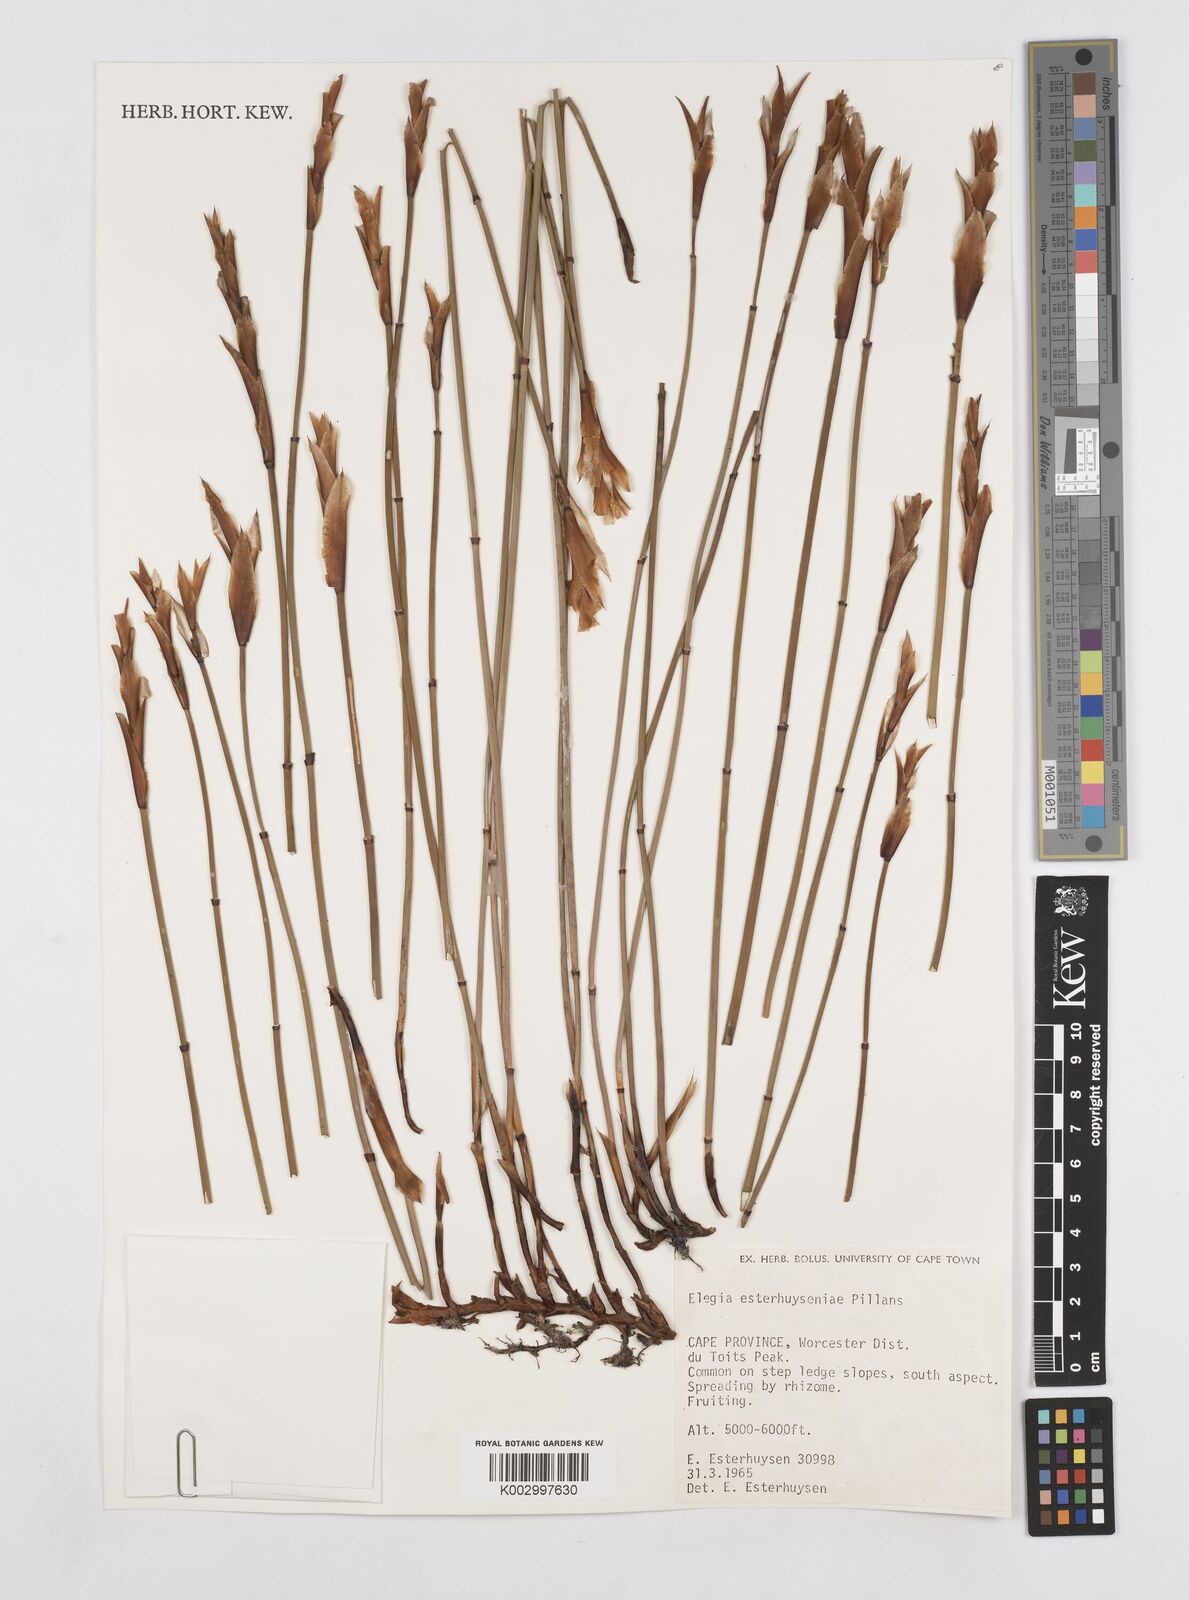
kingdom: Plantae
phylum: Tracheophyta
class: Liliopsida
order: Poales
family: Restionaceae
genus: Elegia
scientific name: Elegia esterhuyseniae
